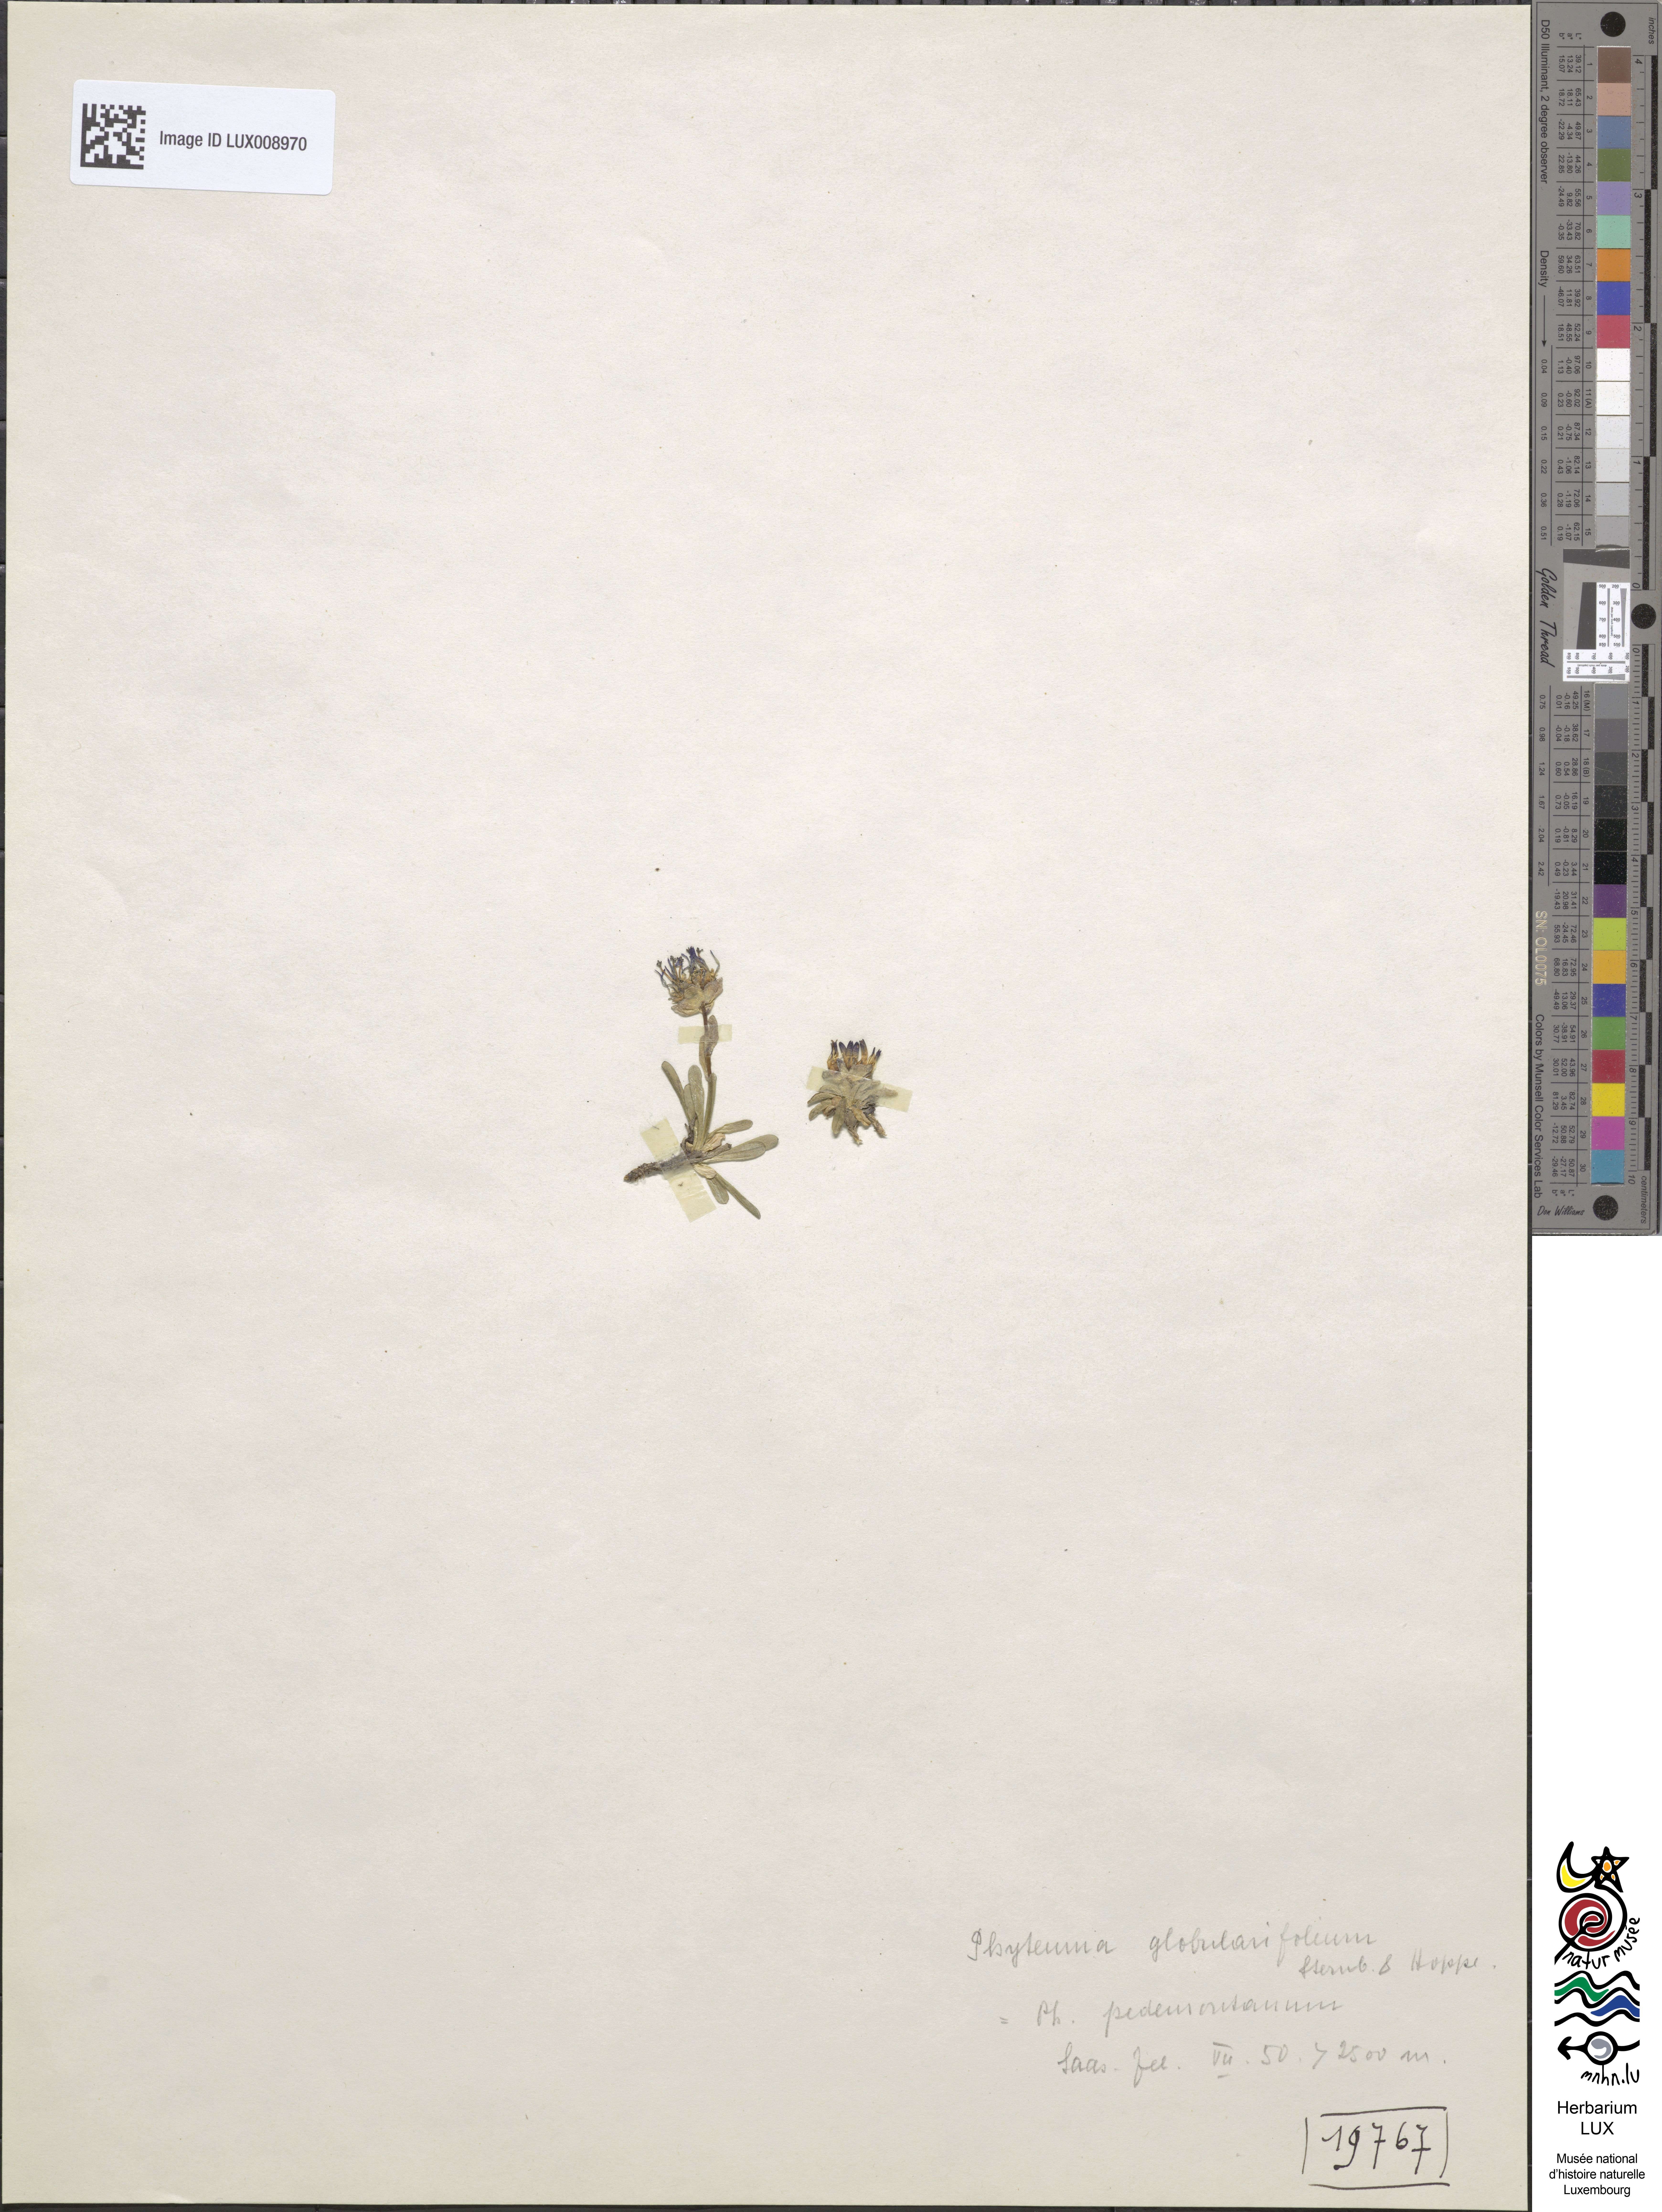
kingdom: Plantae
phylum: Tracheophyta
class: Magnoliopsida
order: Asterales
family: Campanulaceae
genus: Phyteuma
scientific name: Phyteuma globulariifolium
